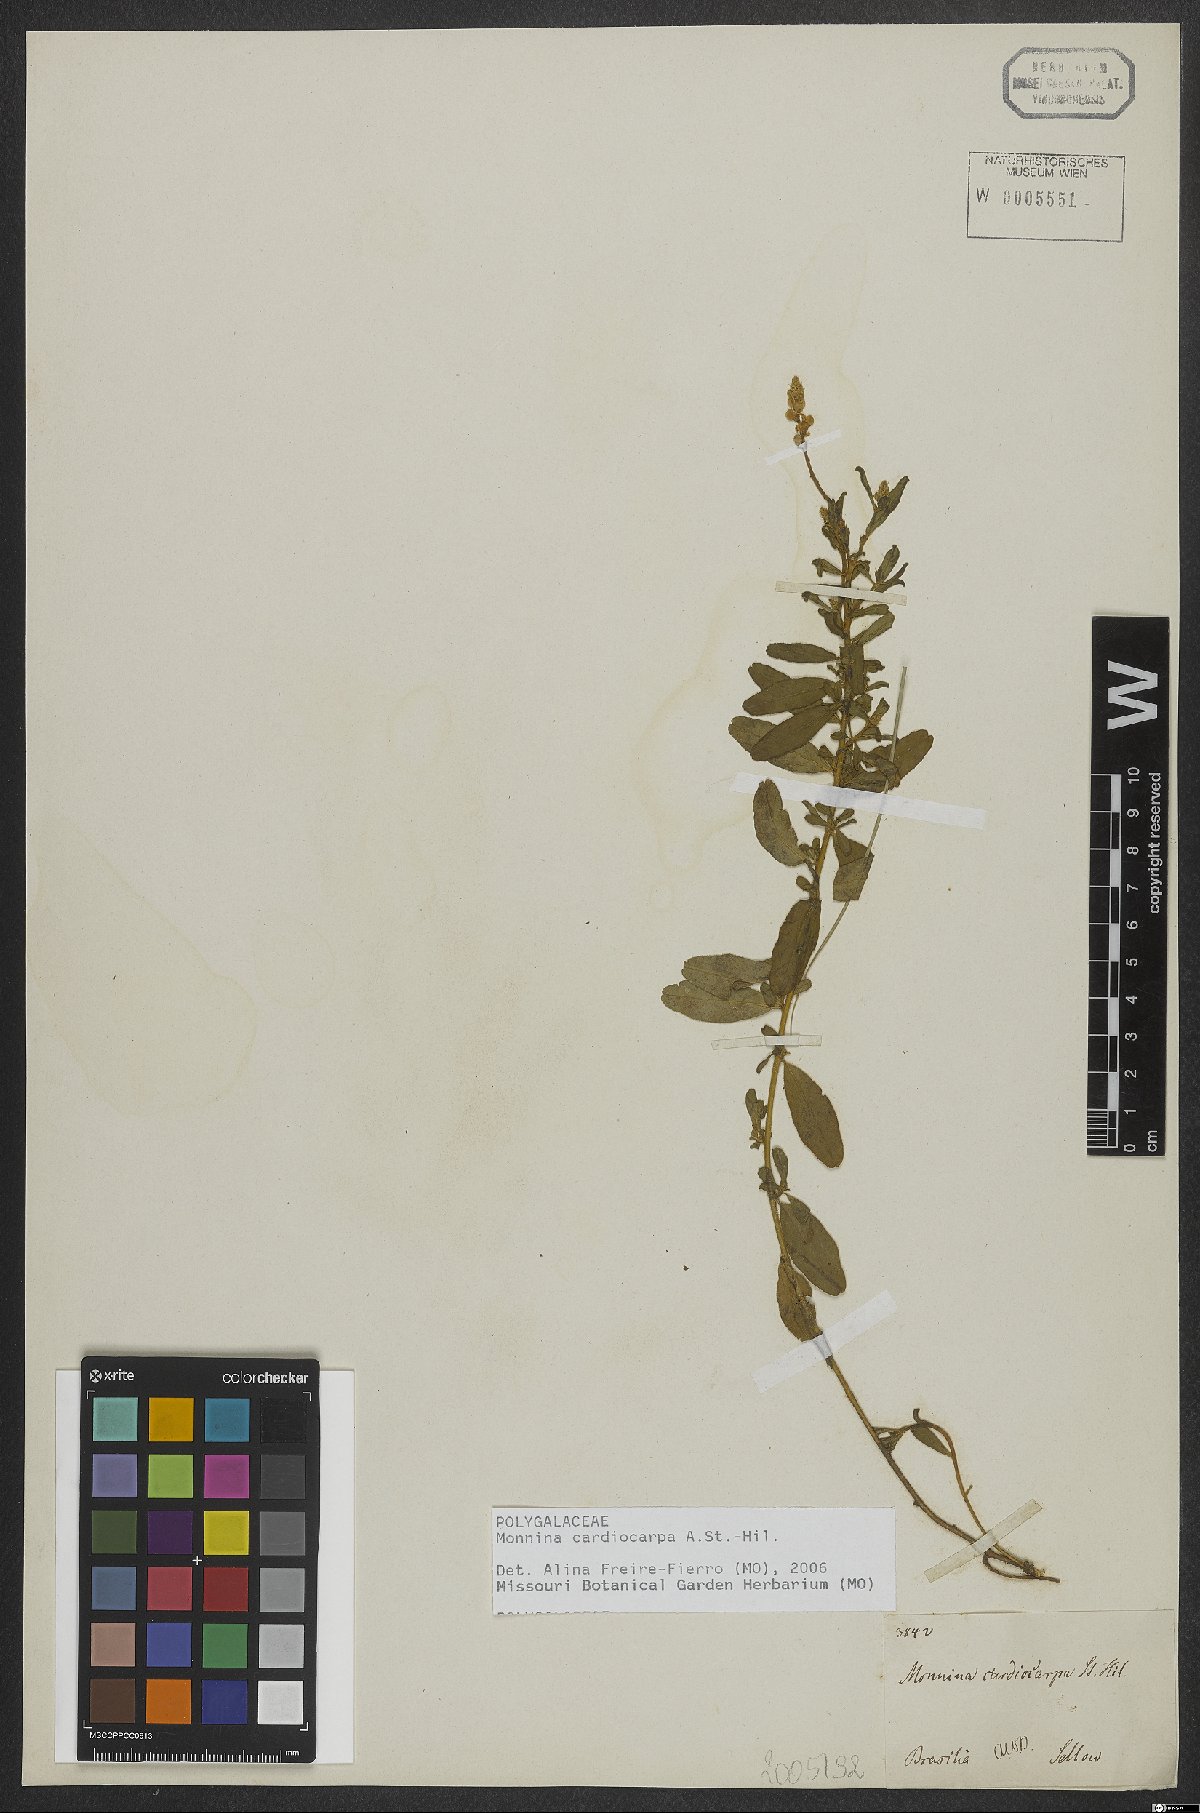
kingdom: Plantae
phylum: Tracheophyta
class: Magnoliopsida
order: Fabales
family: Polygalaceae
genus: Monnina
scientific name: Monnina cardiocarpa
